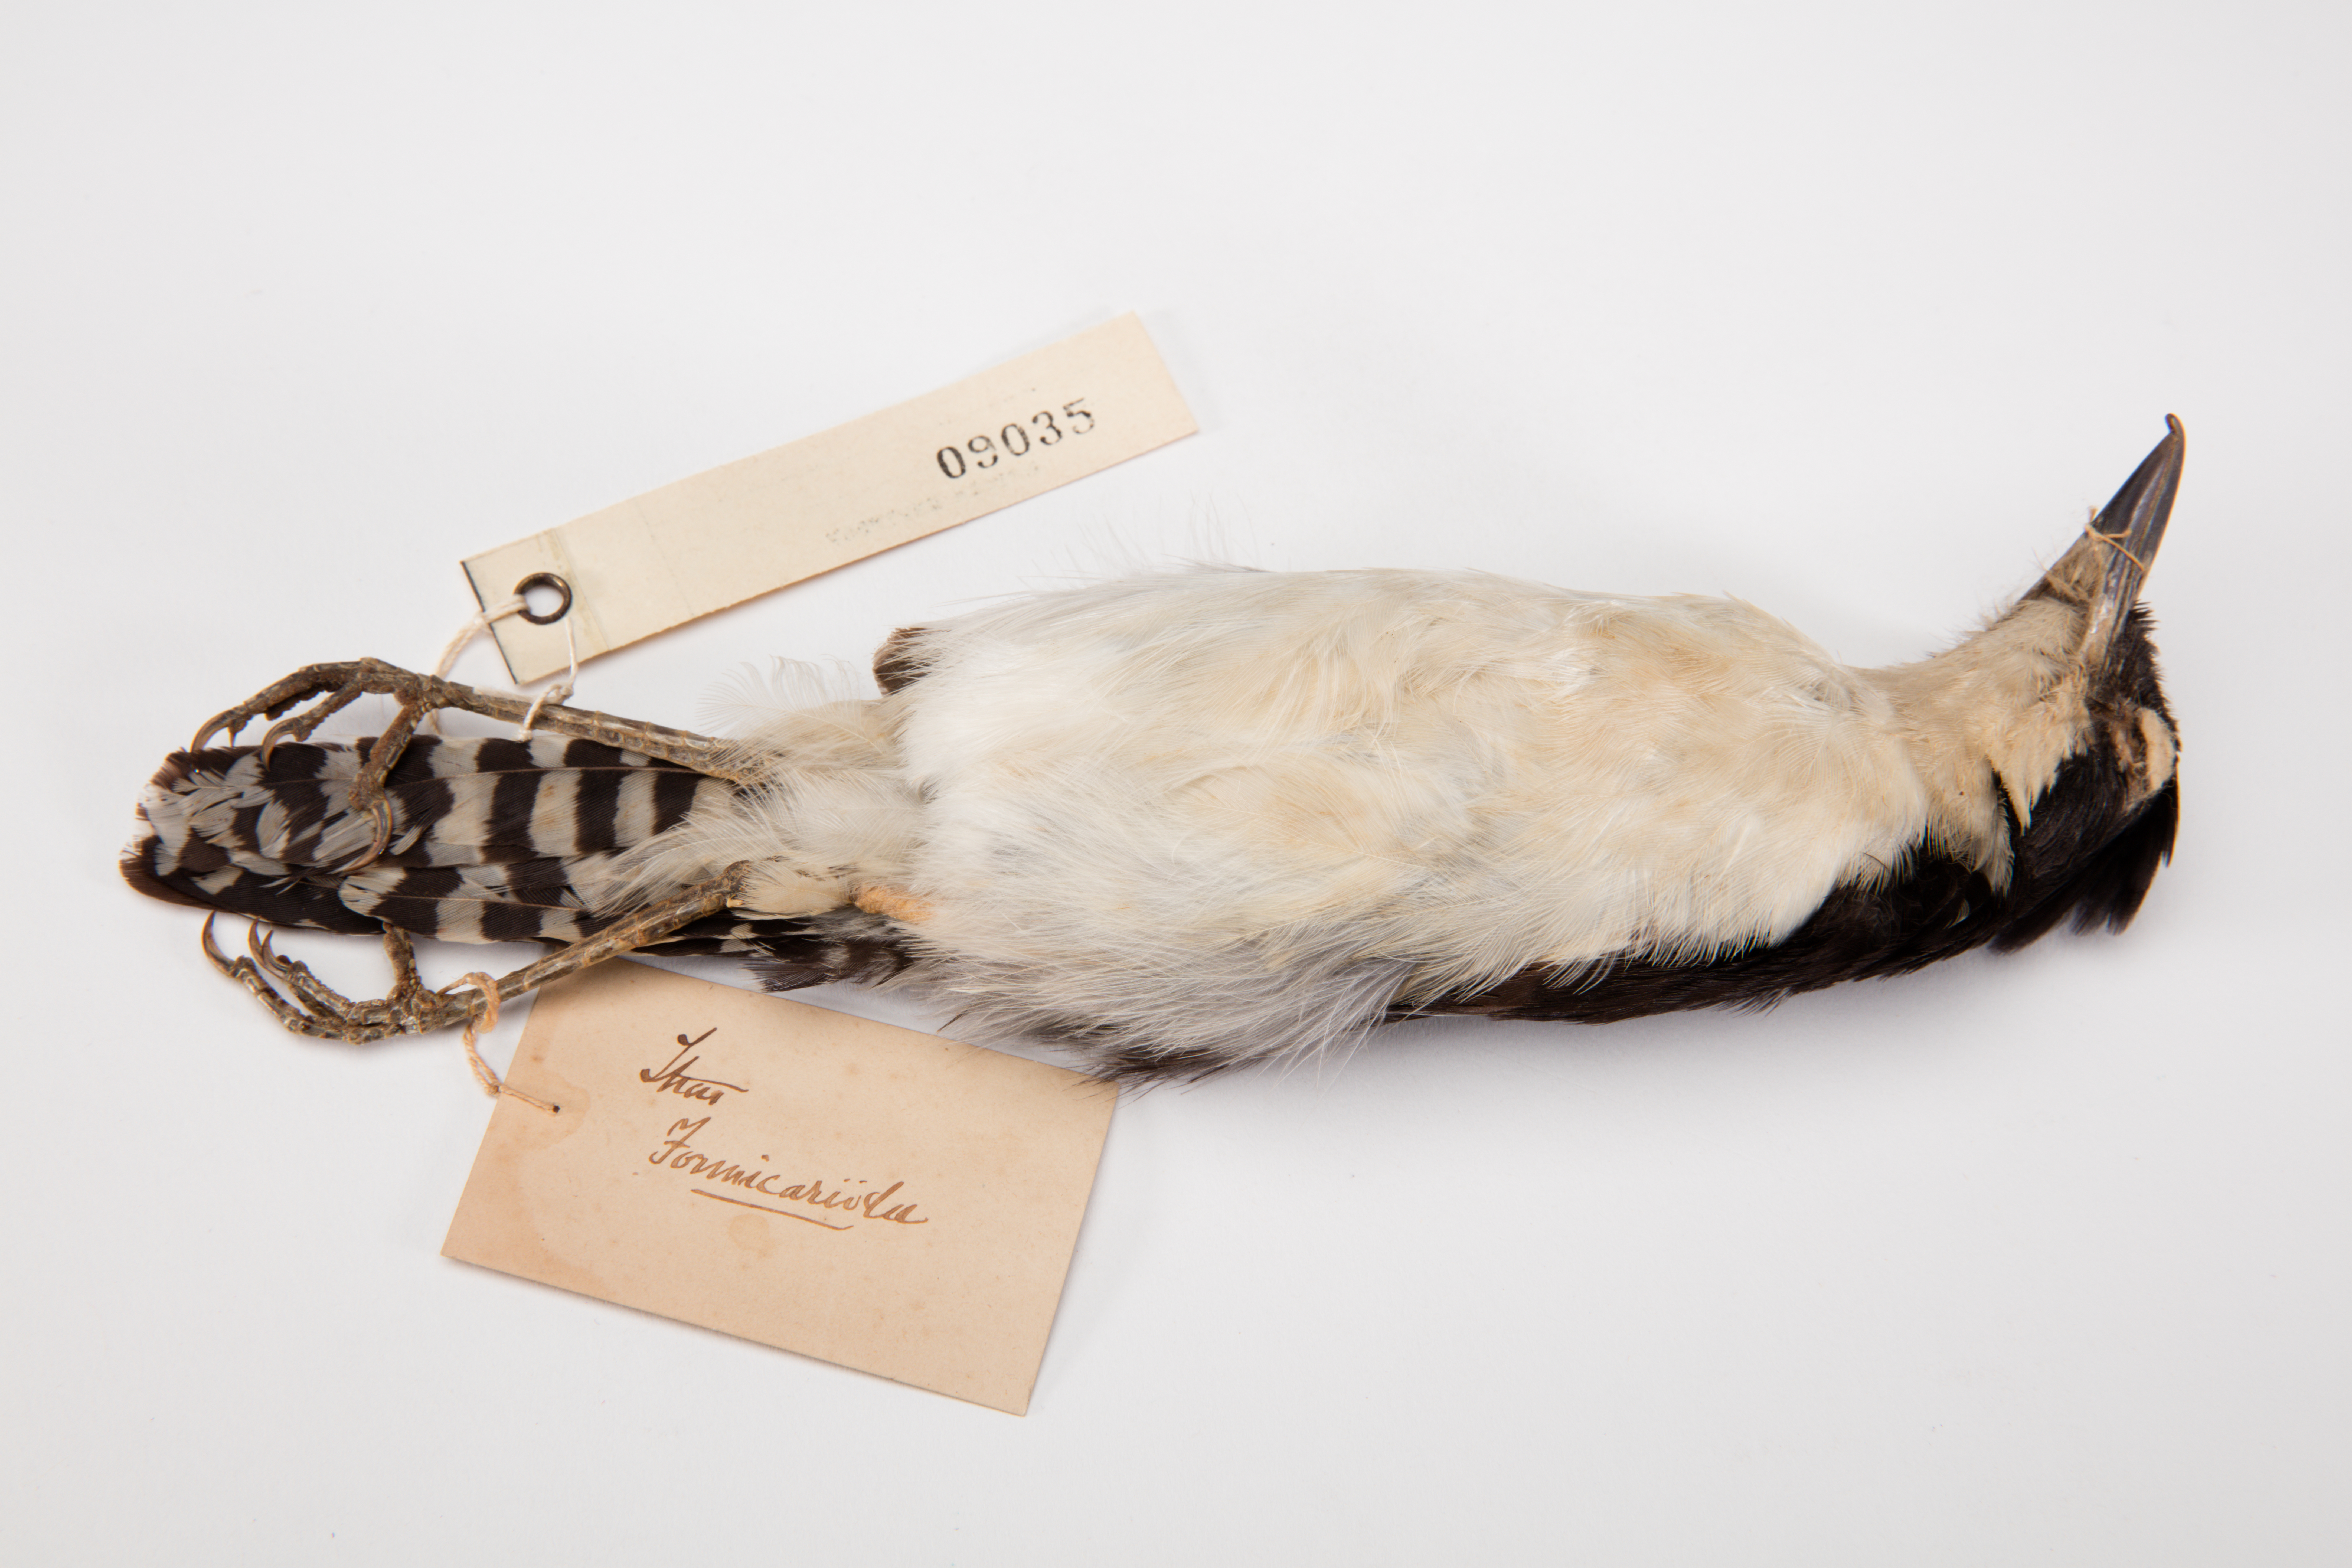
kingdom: Animalia
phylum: Chordata
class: Aves
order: Passeriformes
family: Thamnophilidae
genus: Taraba
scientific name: Taraba major
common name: Great antshrike
